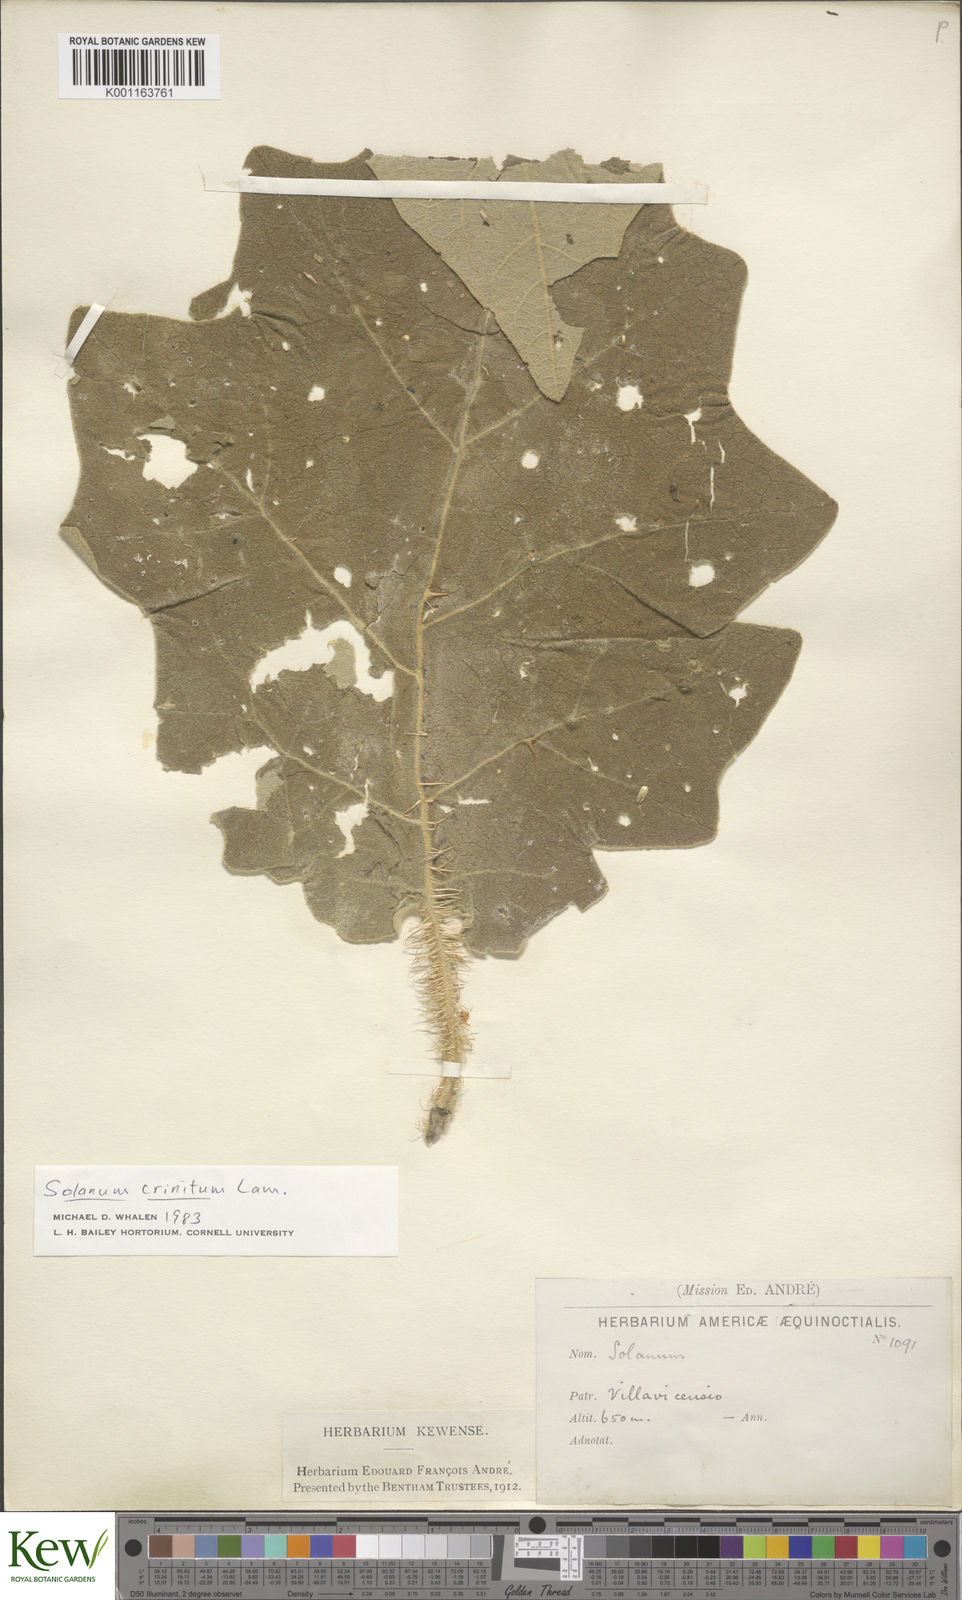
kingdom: Plantae
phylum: Tracheophyta
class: Magnoliopsida
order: Solanales
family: Solanaceae
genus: Solanum
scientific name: Solanum crinitum
